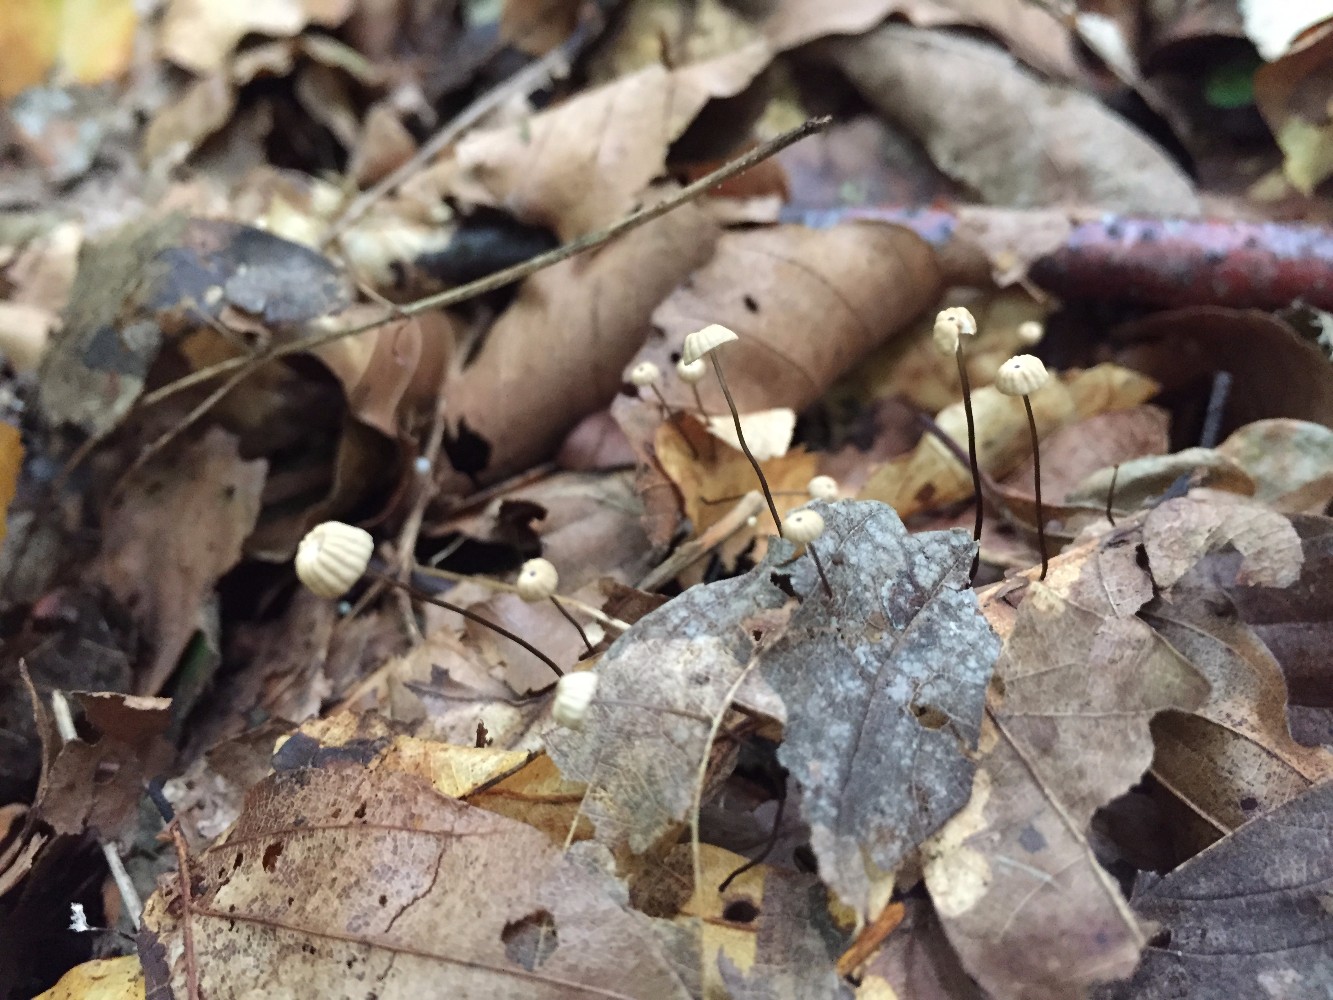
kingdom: Fungi
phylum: Basidiomycota
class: Agaricomycetes
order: Agaricales
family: Marasmiaceae
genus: Marasmius
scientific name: Marasmius bulliardii
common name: furet bruskhat
